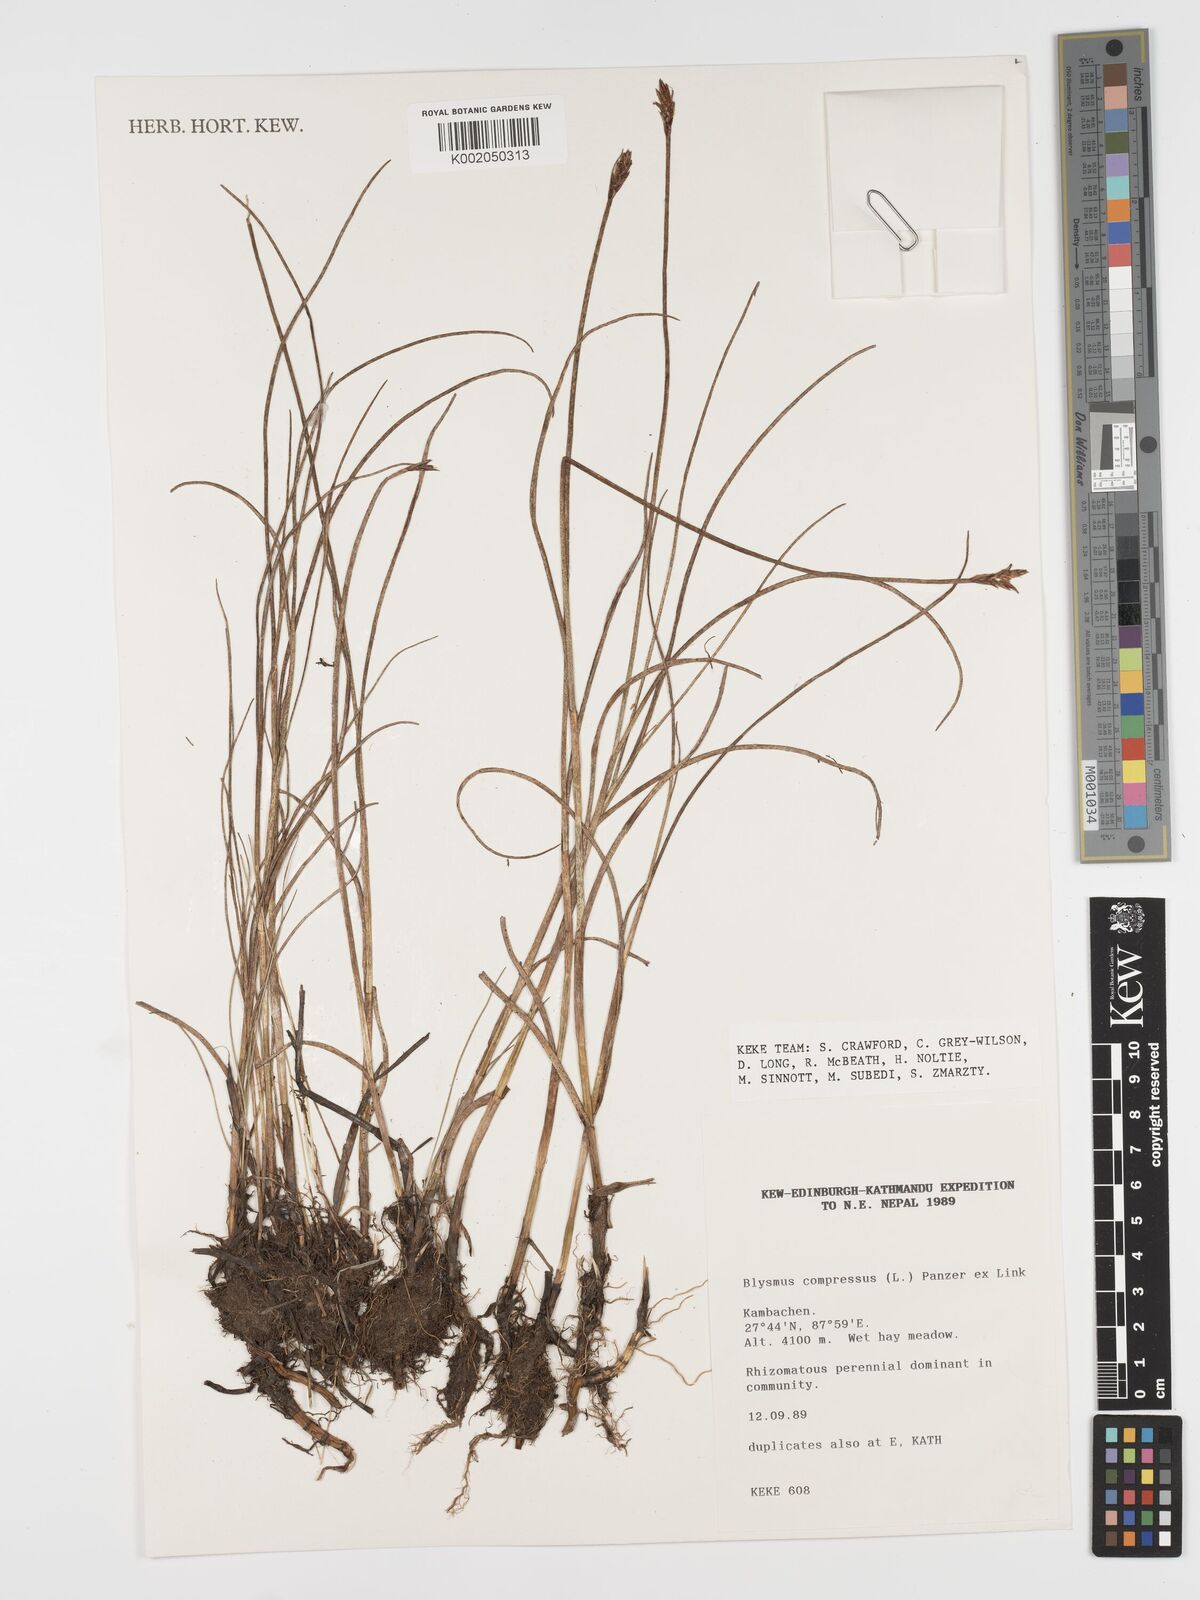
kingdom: Plantae
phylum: Tracheophyta
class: Liliopsida
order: Poales
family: Cyperaceae
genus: Blysmus
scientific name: Blysmus compressus
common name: Flat-sedge
